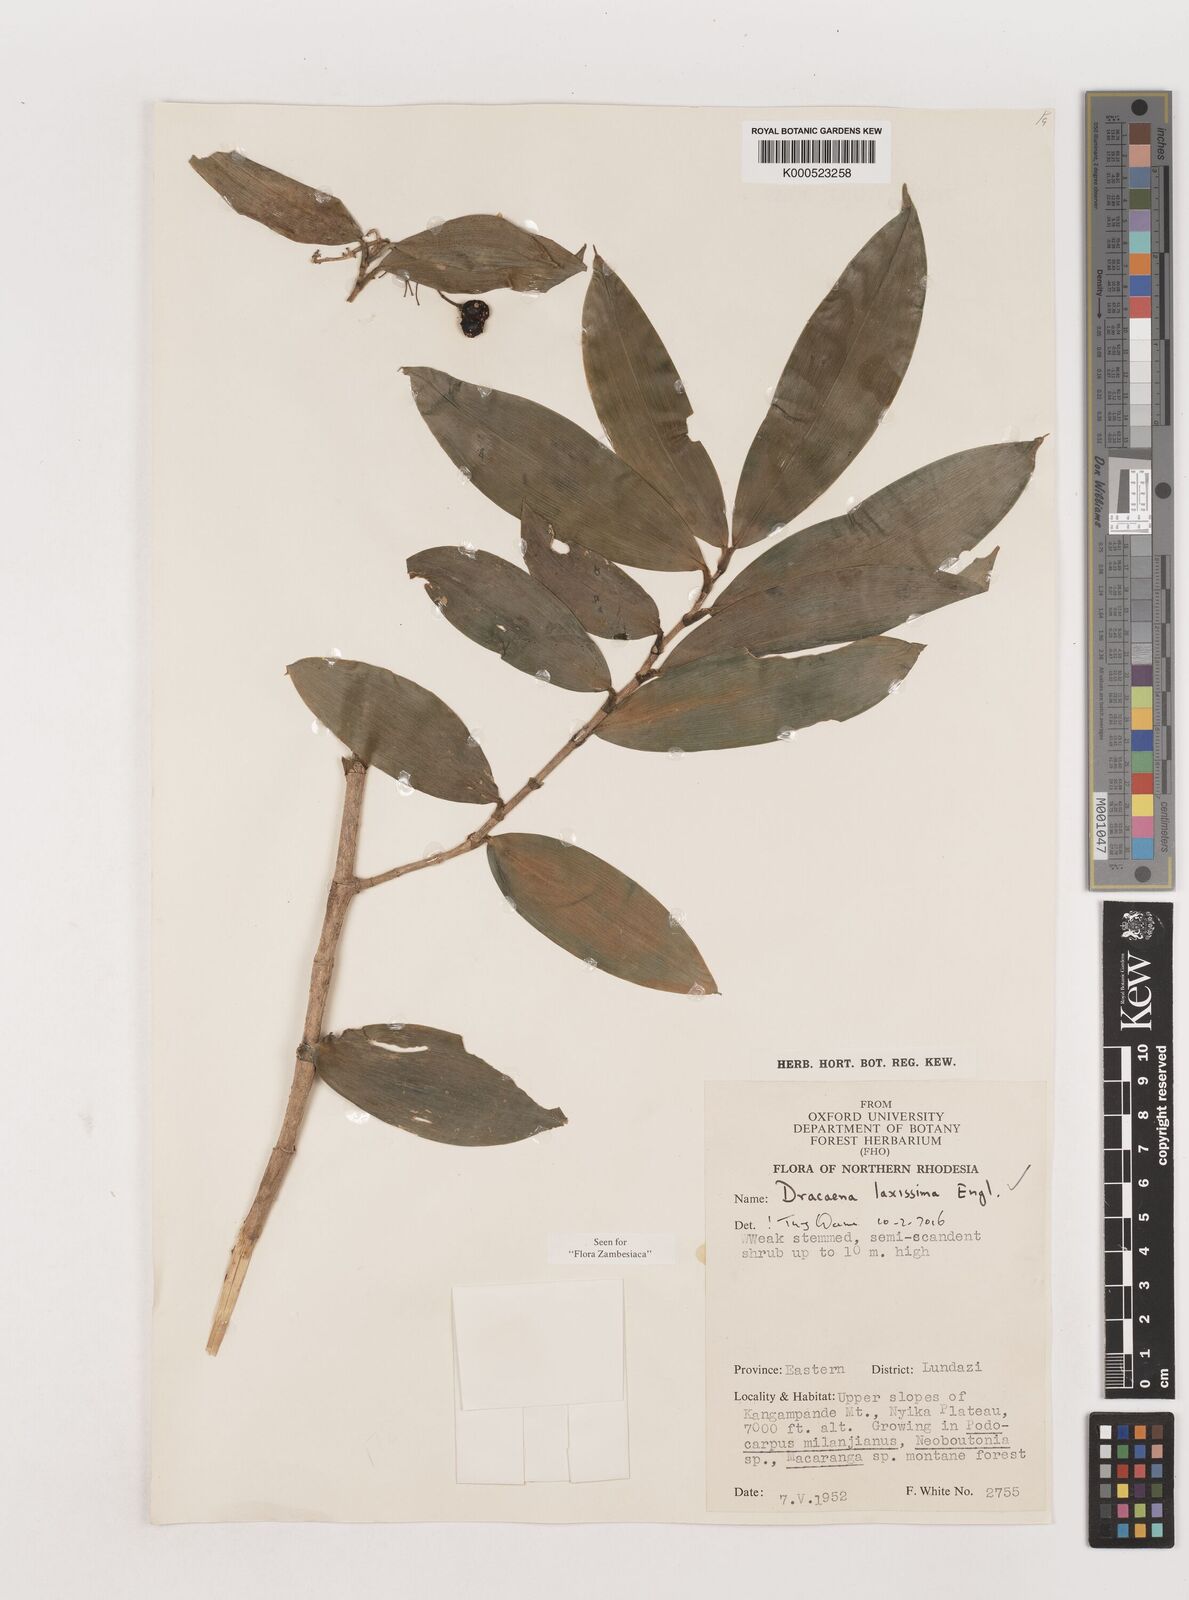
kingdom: Plantae
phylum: Tracheophyta
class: Liliopsida
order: Asparagales
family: Asparagaceae
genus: Dracaena
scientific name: Dracaena laxissima
